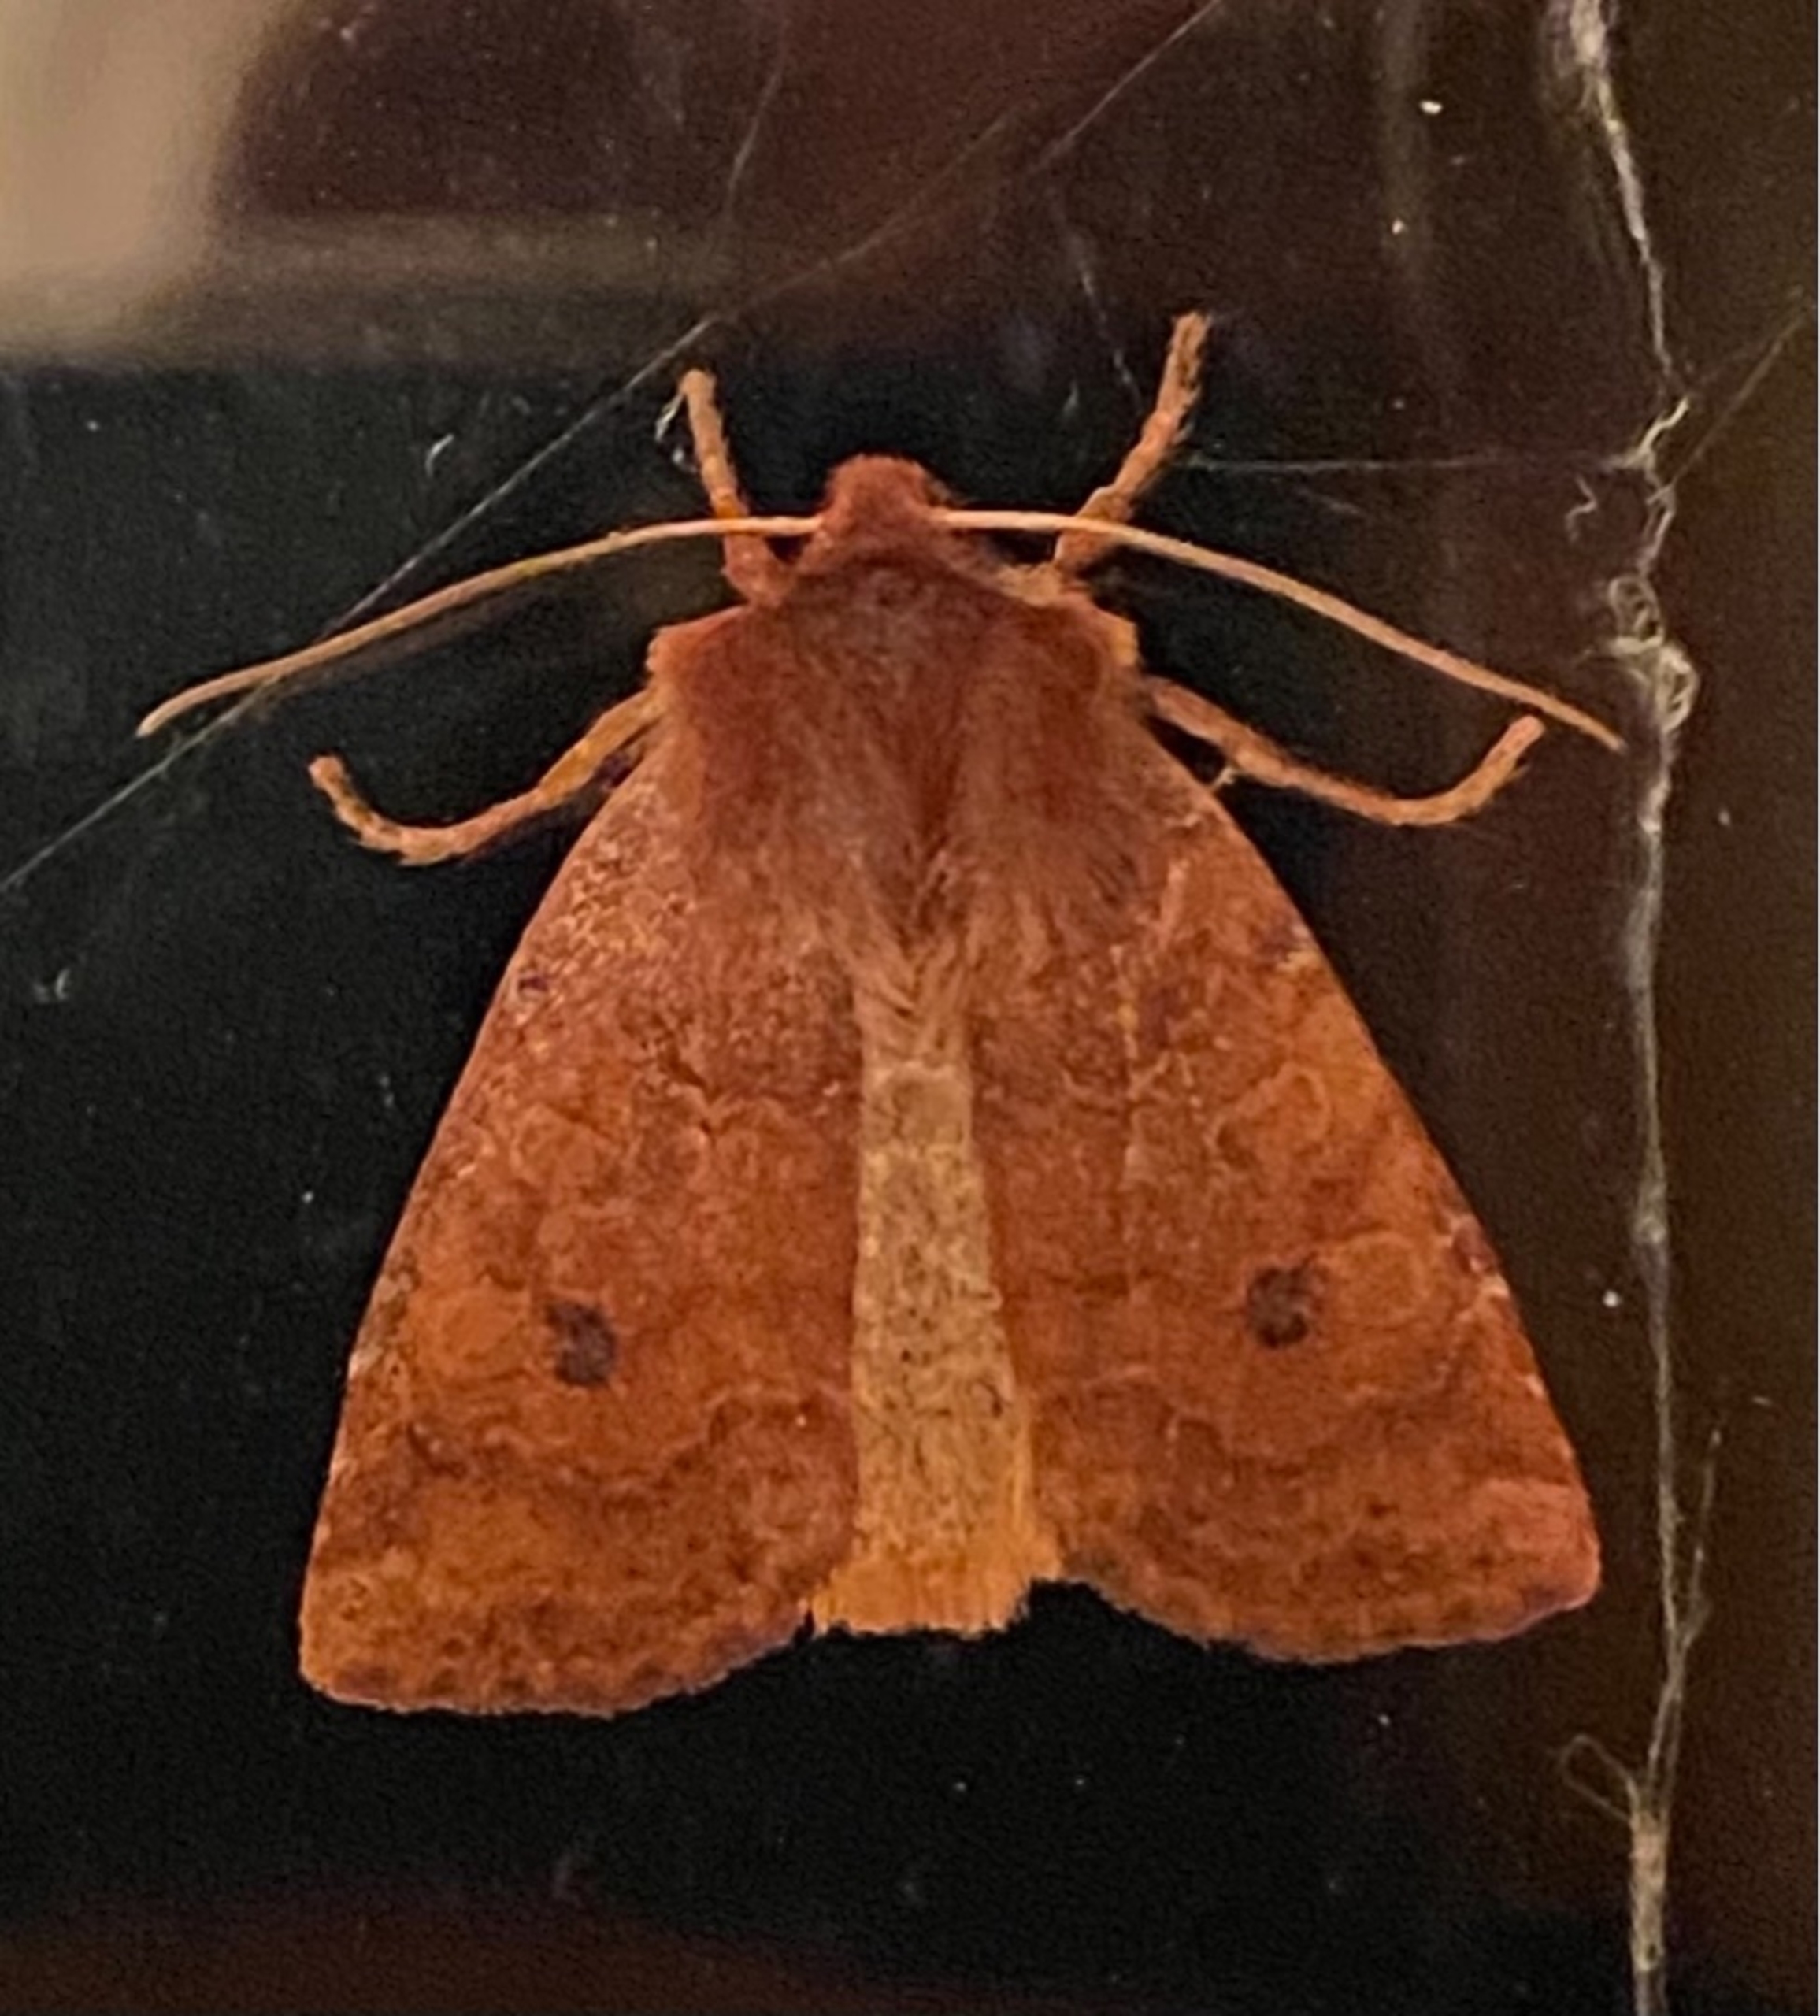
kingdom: Animalia
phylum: Arthropoda
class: Insecta
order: Lepidoptera
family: Noctuidae
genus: Conistra
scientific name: Conistra vaccinii
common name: Blåbærugle
